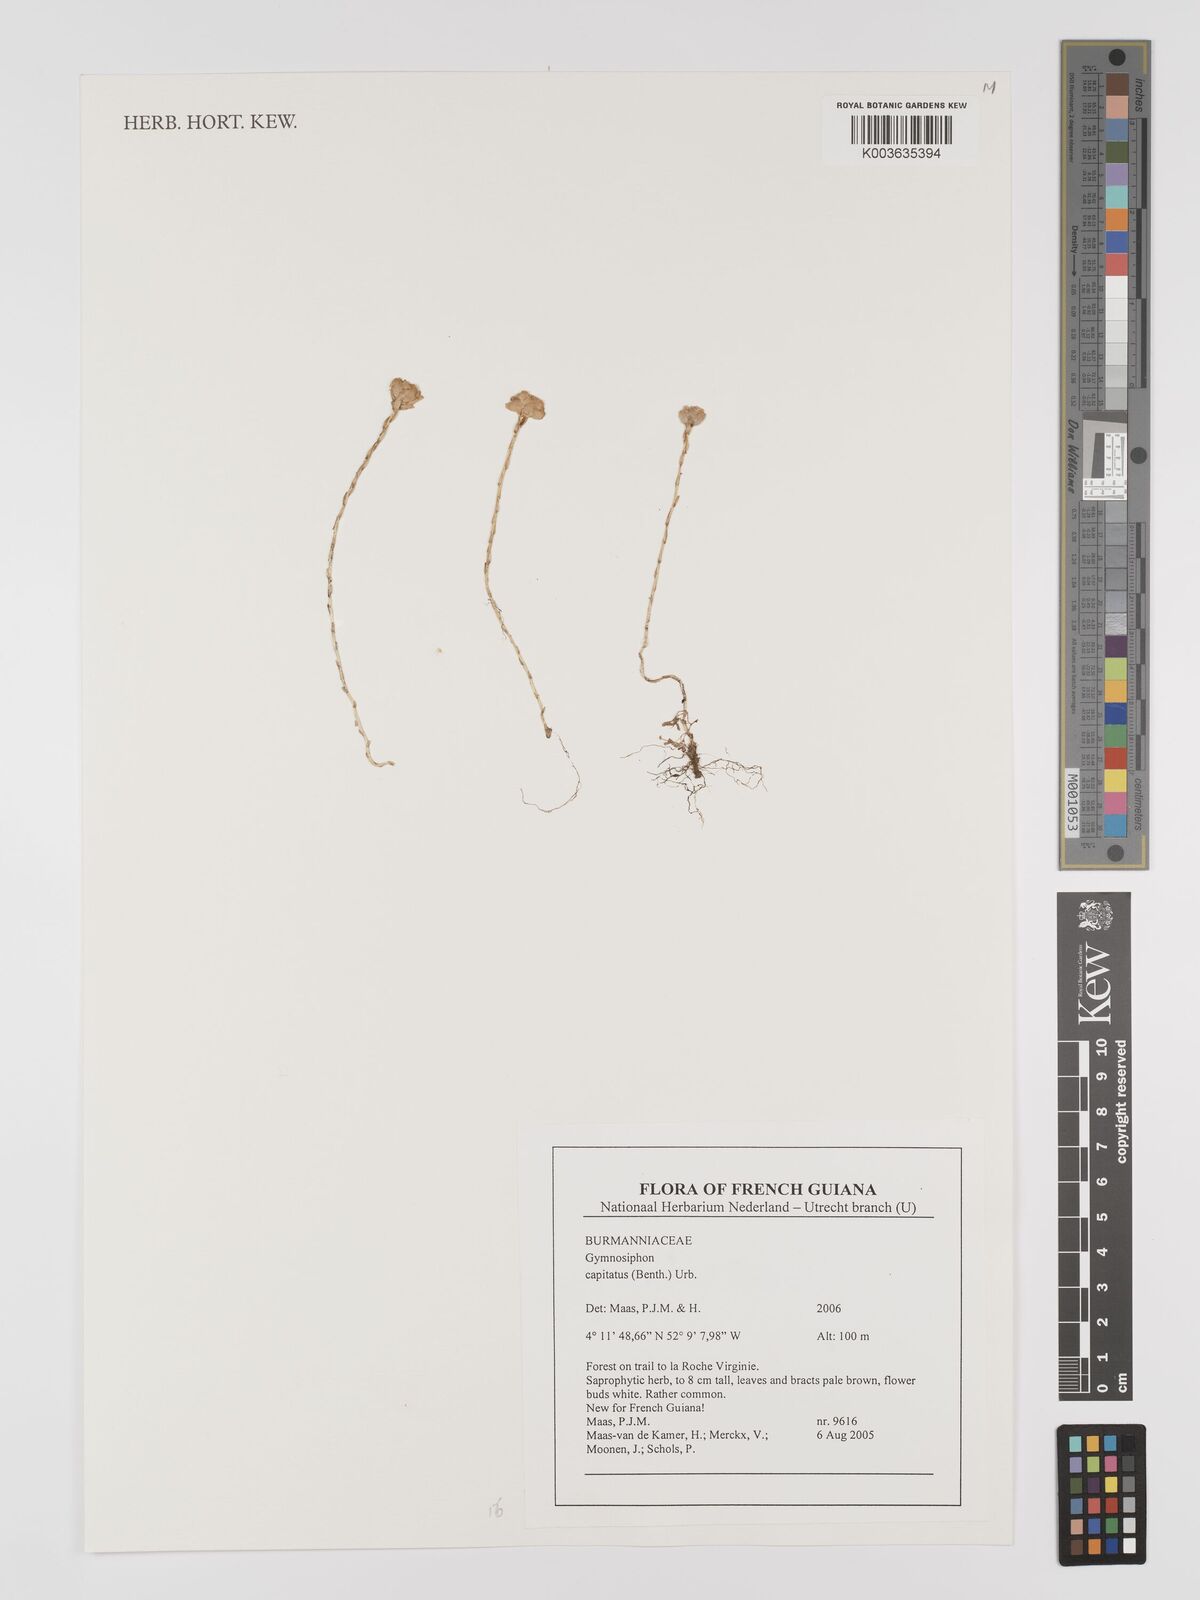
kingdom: Plantae
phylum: Tracheophyta
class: Liliopsida
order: Dioscoreales
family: Burmanniaceae
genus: Gymnosiphon
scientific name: Gymnosiphon capitatus
